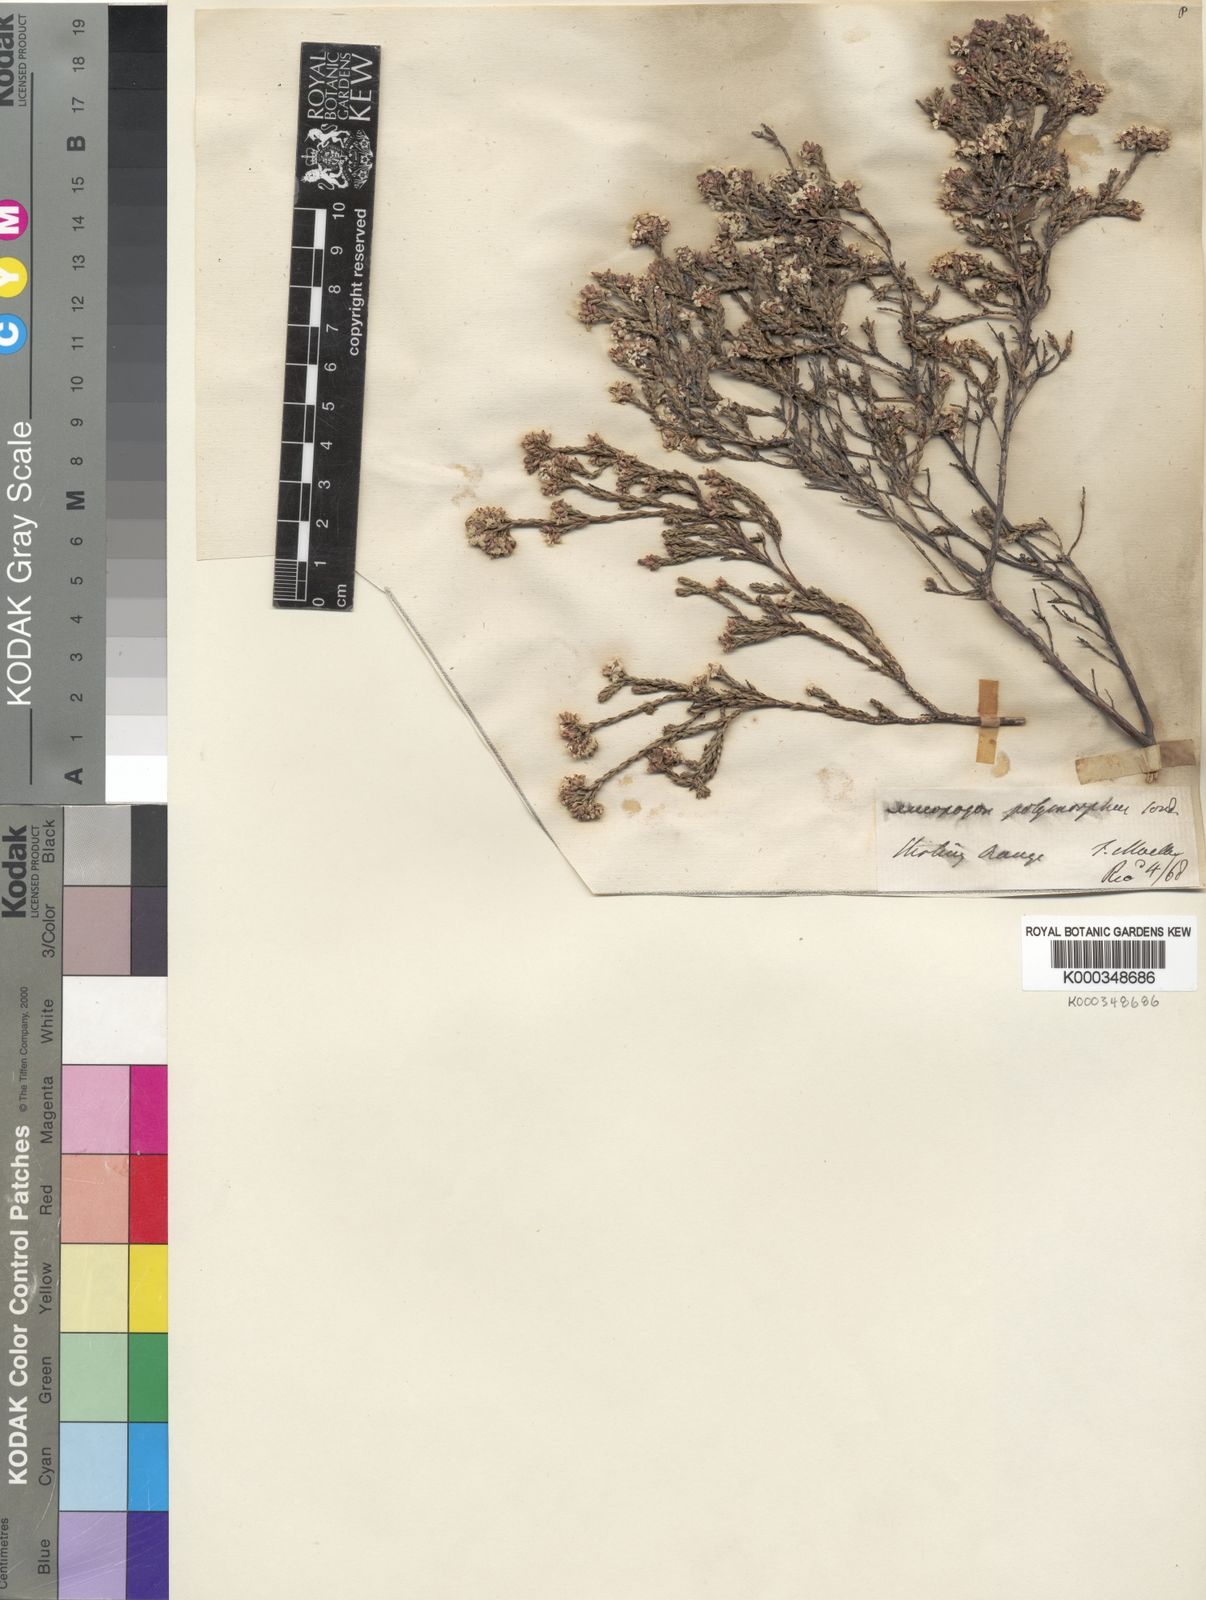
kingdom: Plantae
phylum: Tracheophyta
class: Magnoliopsida
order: Ericales
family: Ericaceae
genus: Leucopogon
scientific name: Leucopogon polymorphus
